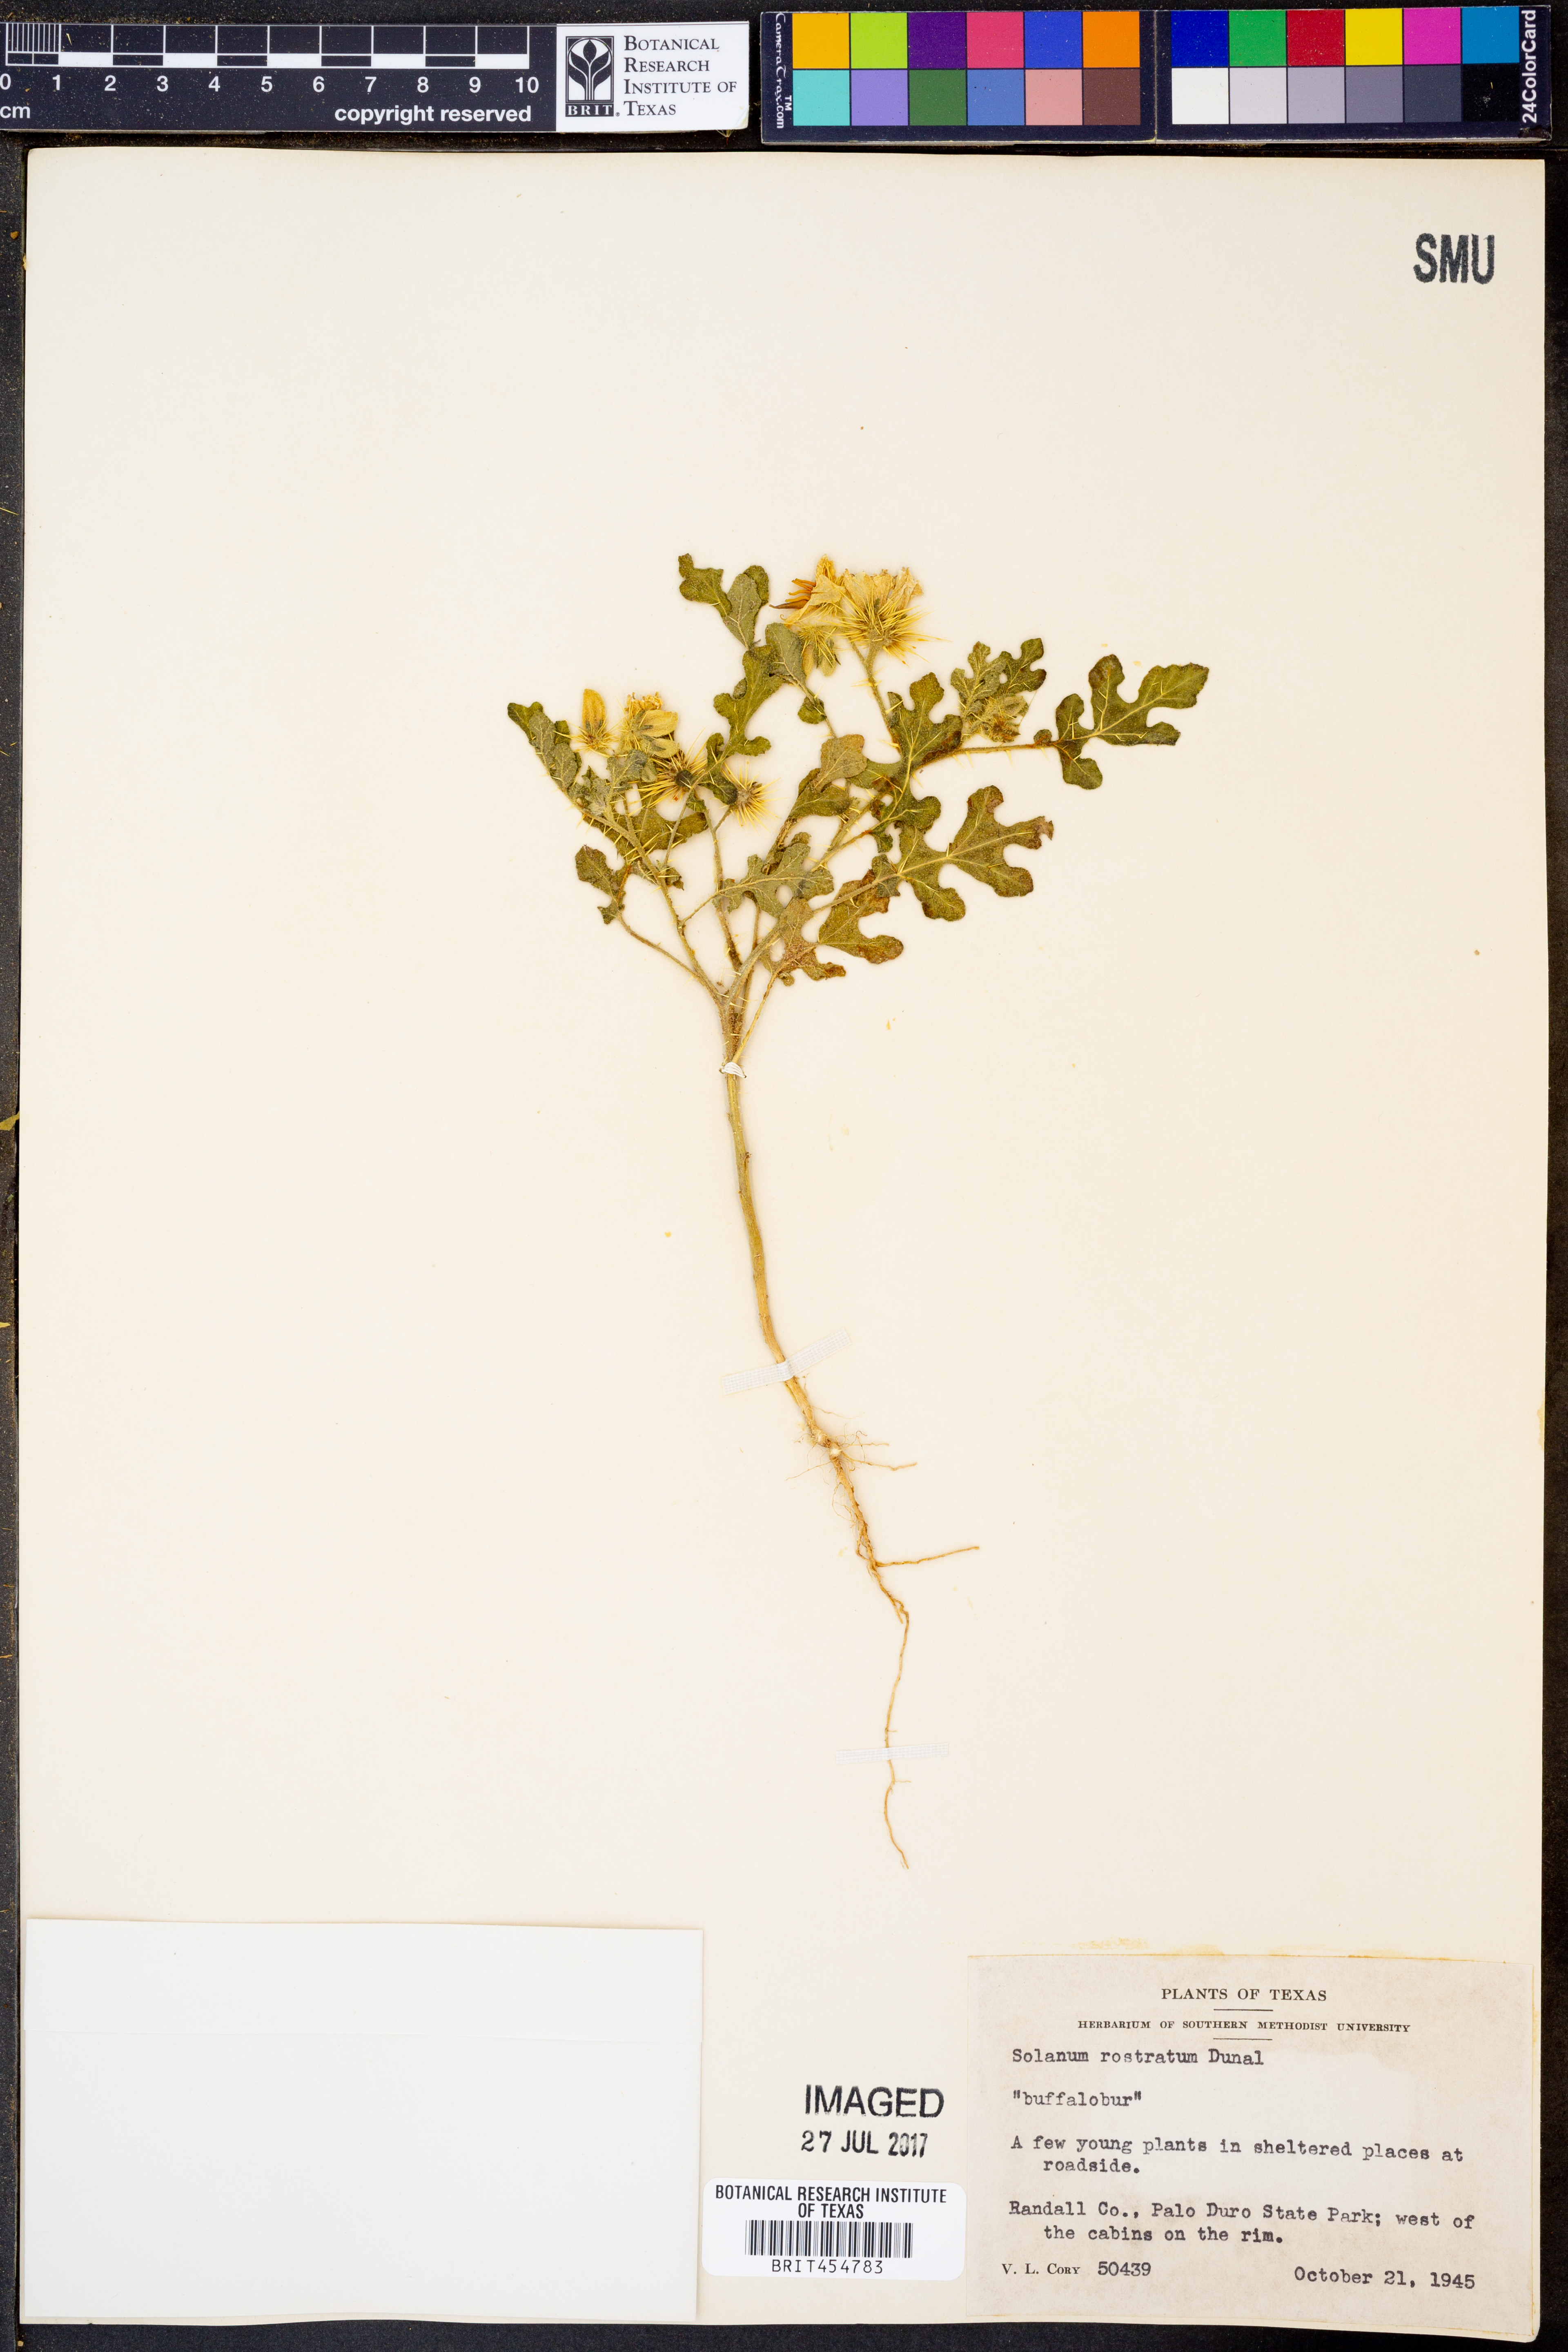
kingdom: Plantae
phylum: Tracheophyta
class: Magnoliopsida
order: Solanales
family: Solanaceae
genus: Solanum
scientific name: Solanum angustifolium
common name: Buffalobur nightshade
